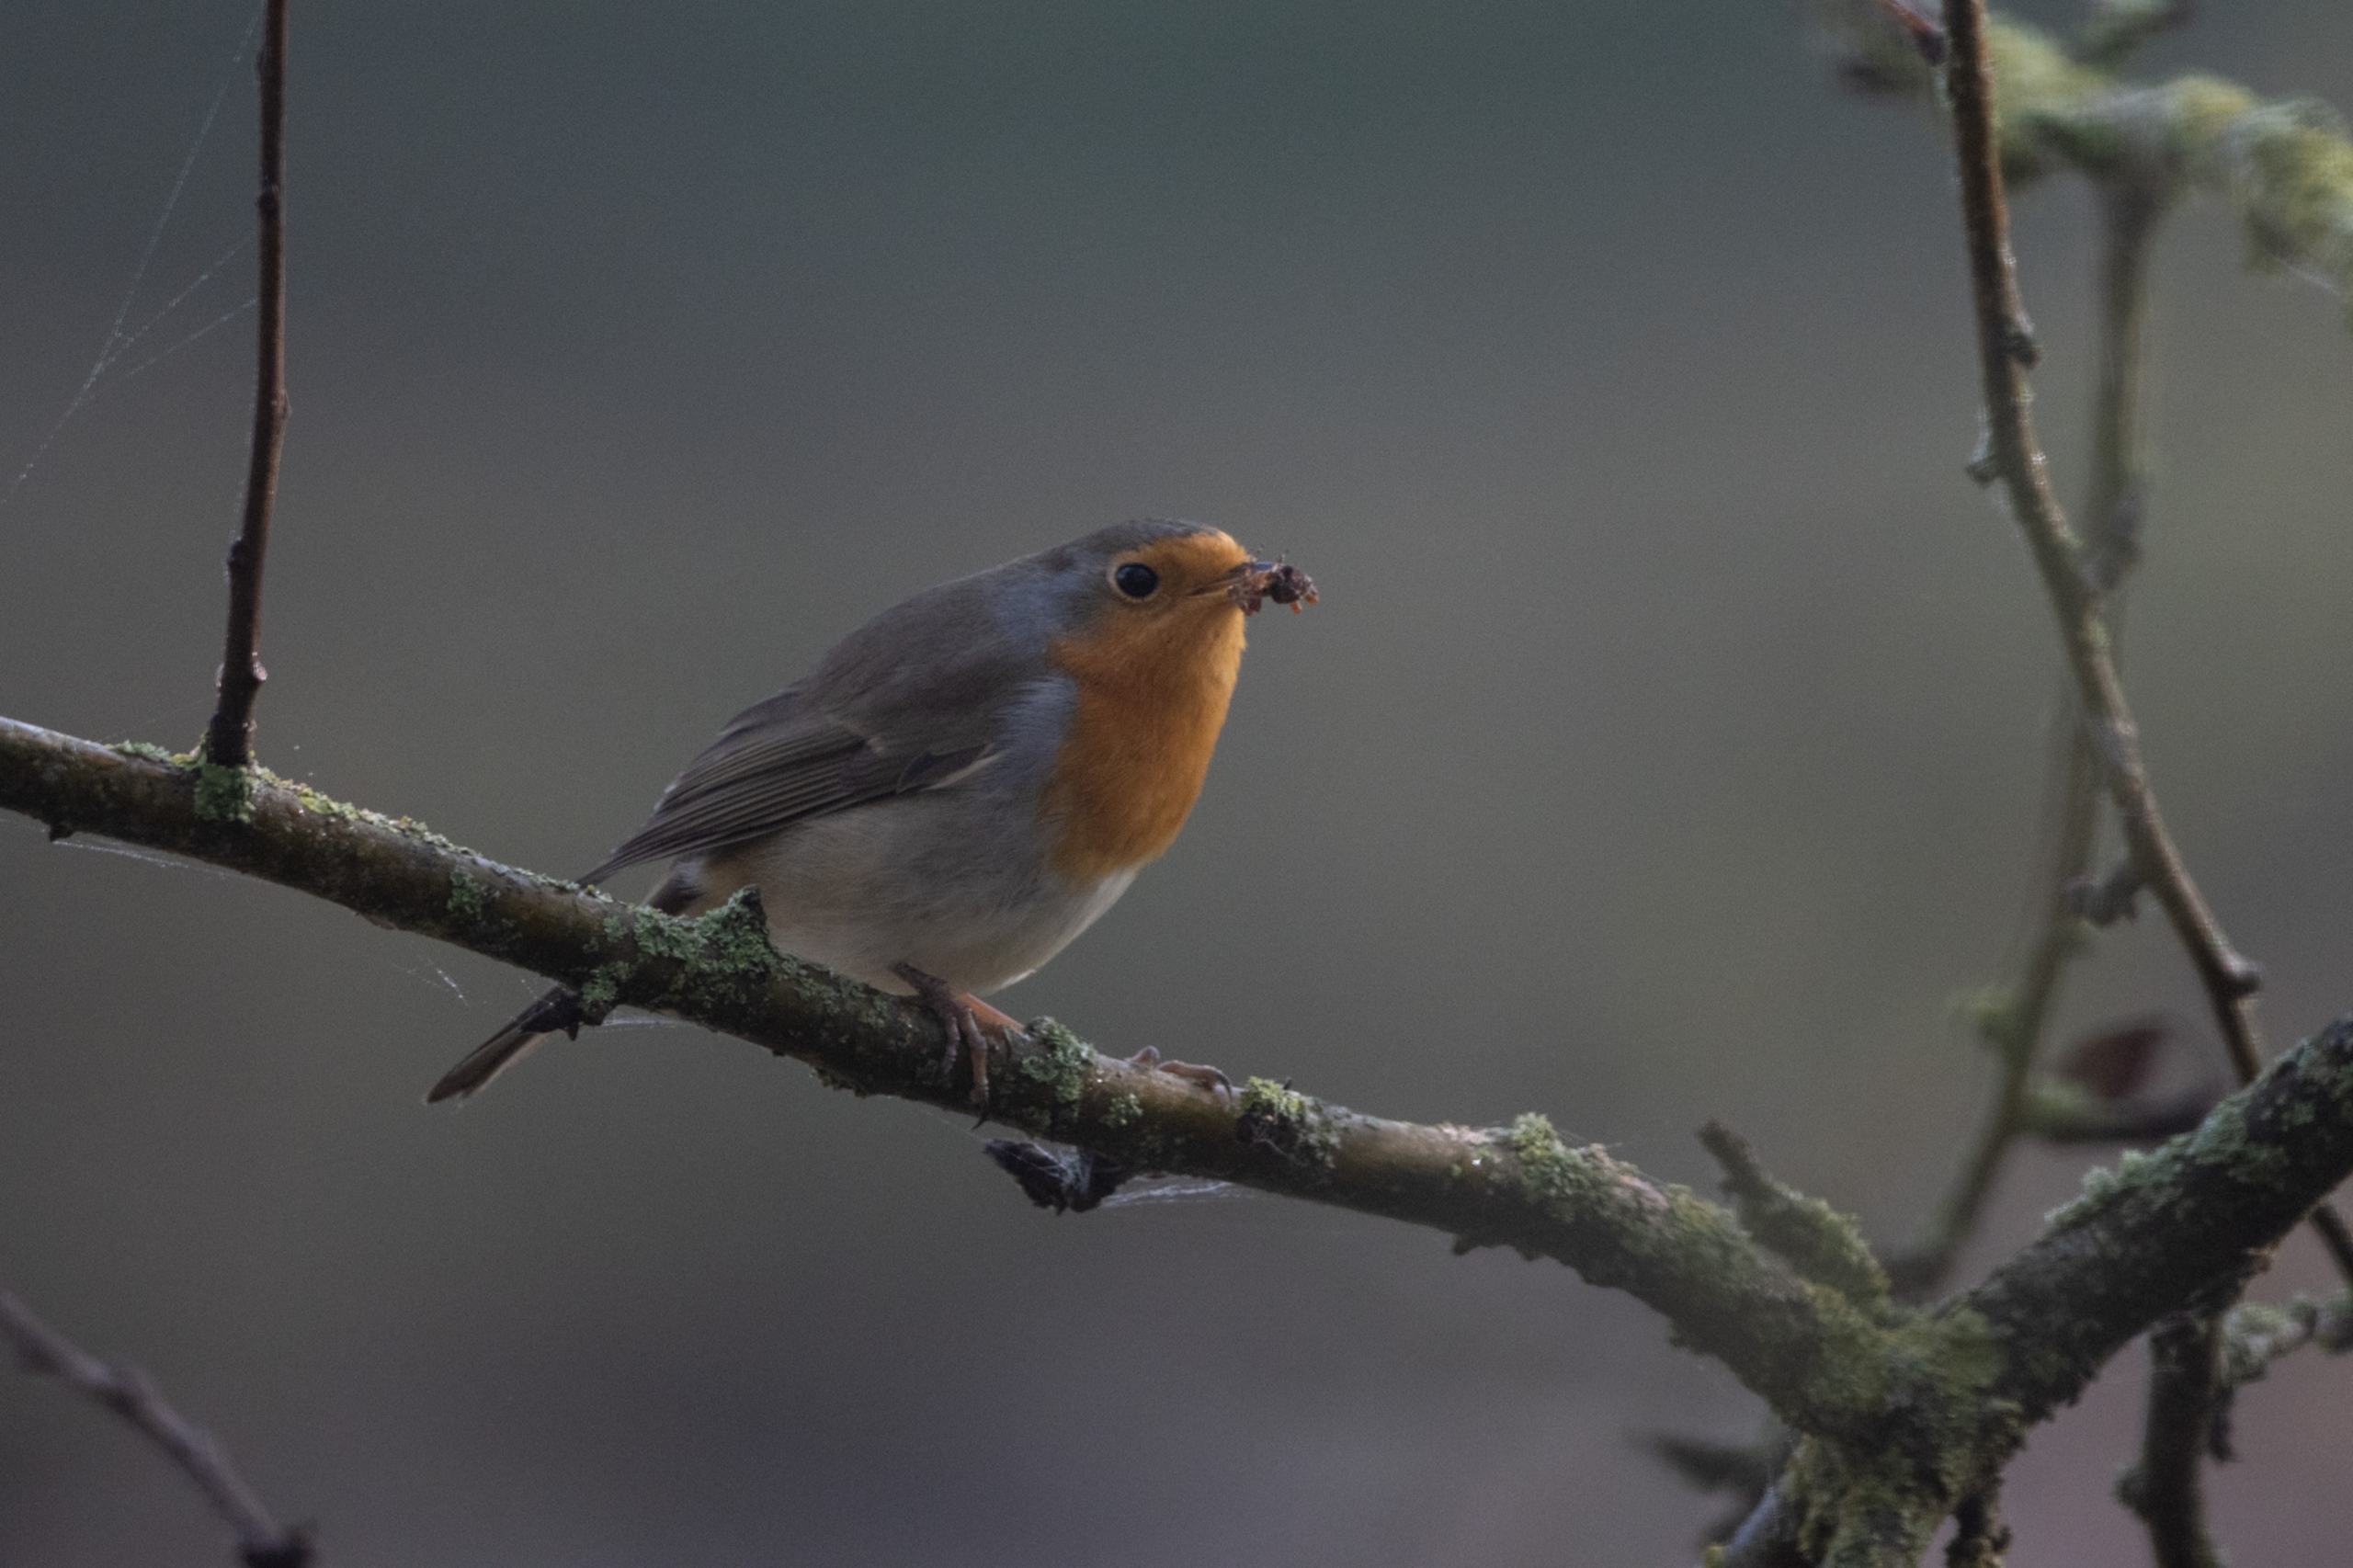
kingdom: Animalia
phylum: Chordata
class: Aves
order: Passeriformes
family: Muscicapidae
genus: Erithacus
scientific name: Erithacus rubecula
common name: Rødhals/rødkælk
